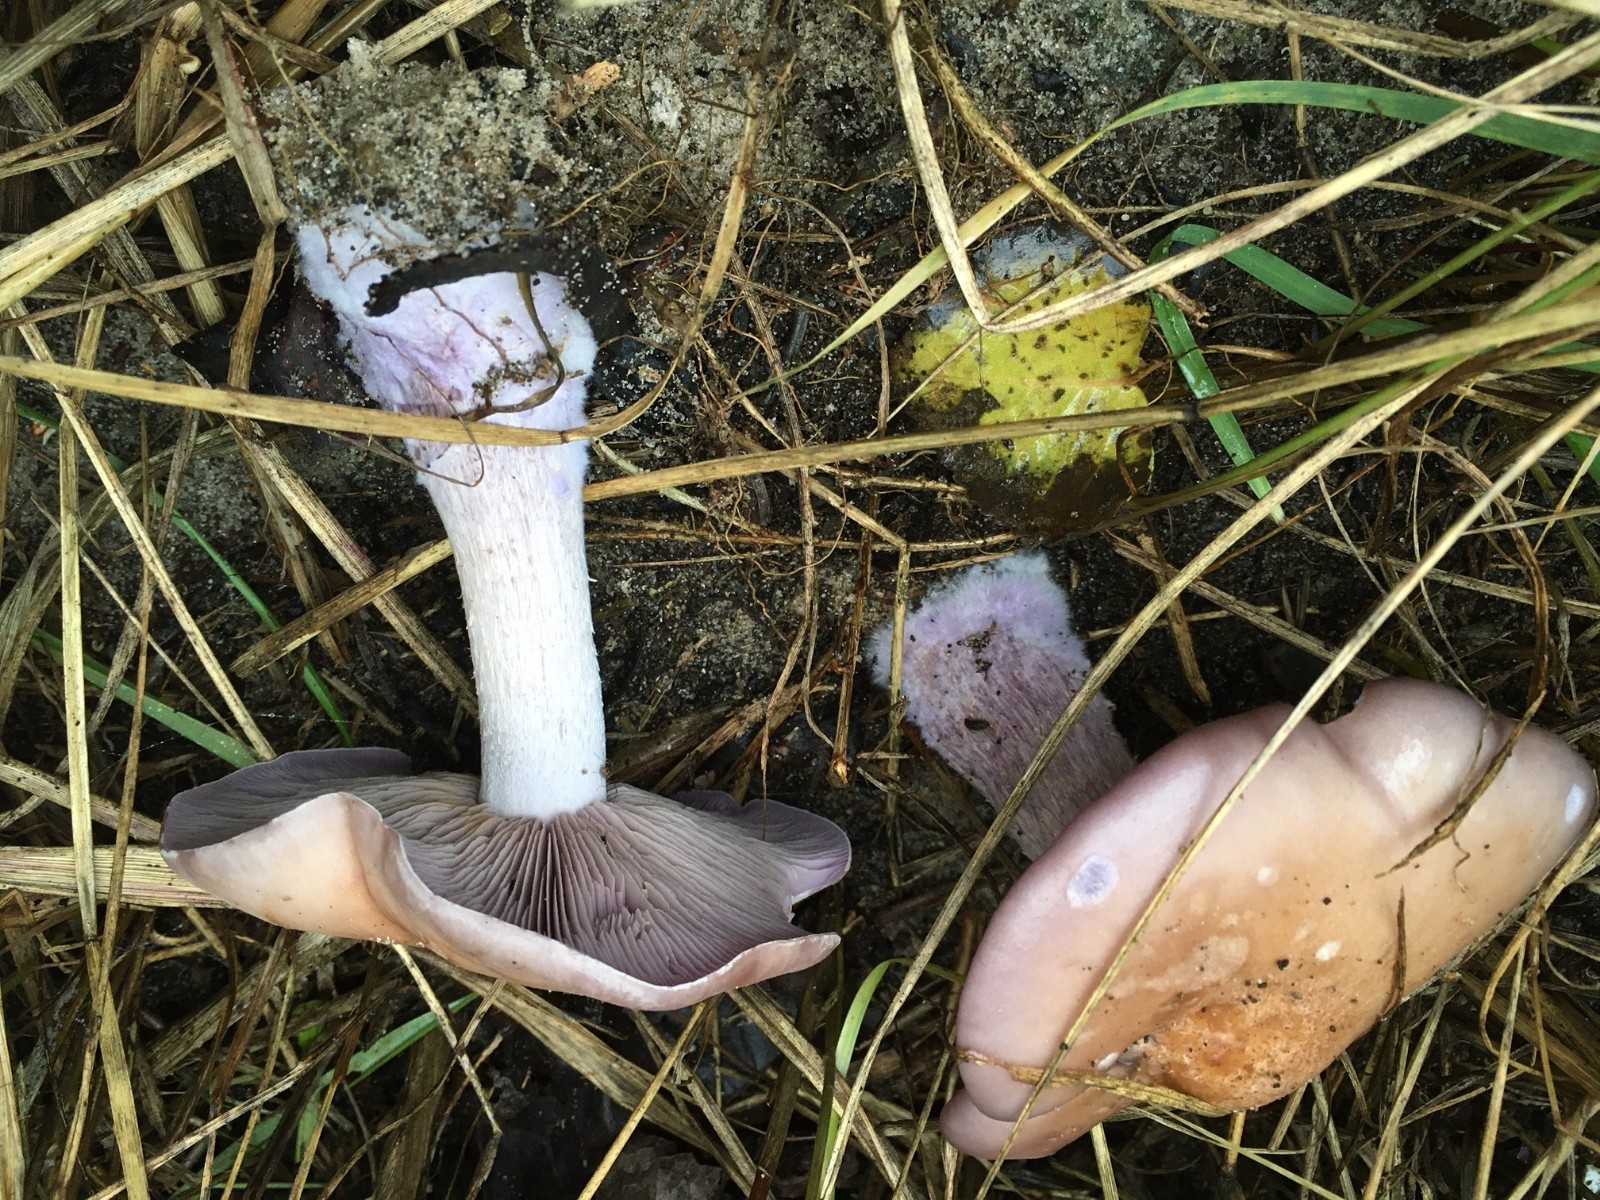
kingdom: Fungi
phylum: Basidiomycota
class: Agaricomycetes
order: Agaricales
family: Tricholomataceae
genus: Lepista
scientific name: Lepista nuda
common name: violet hekseringshat
